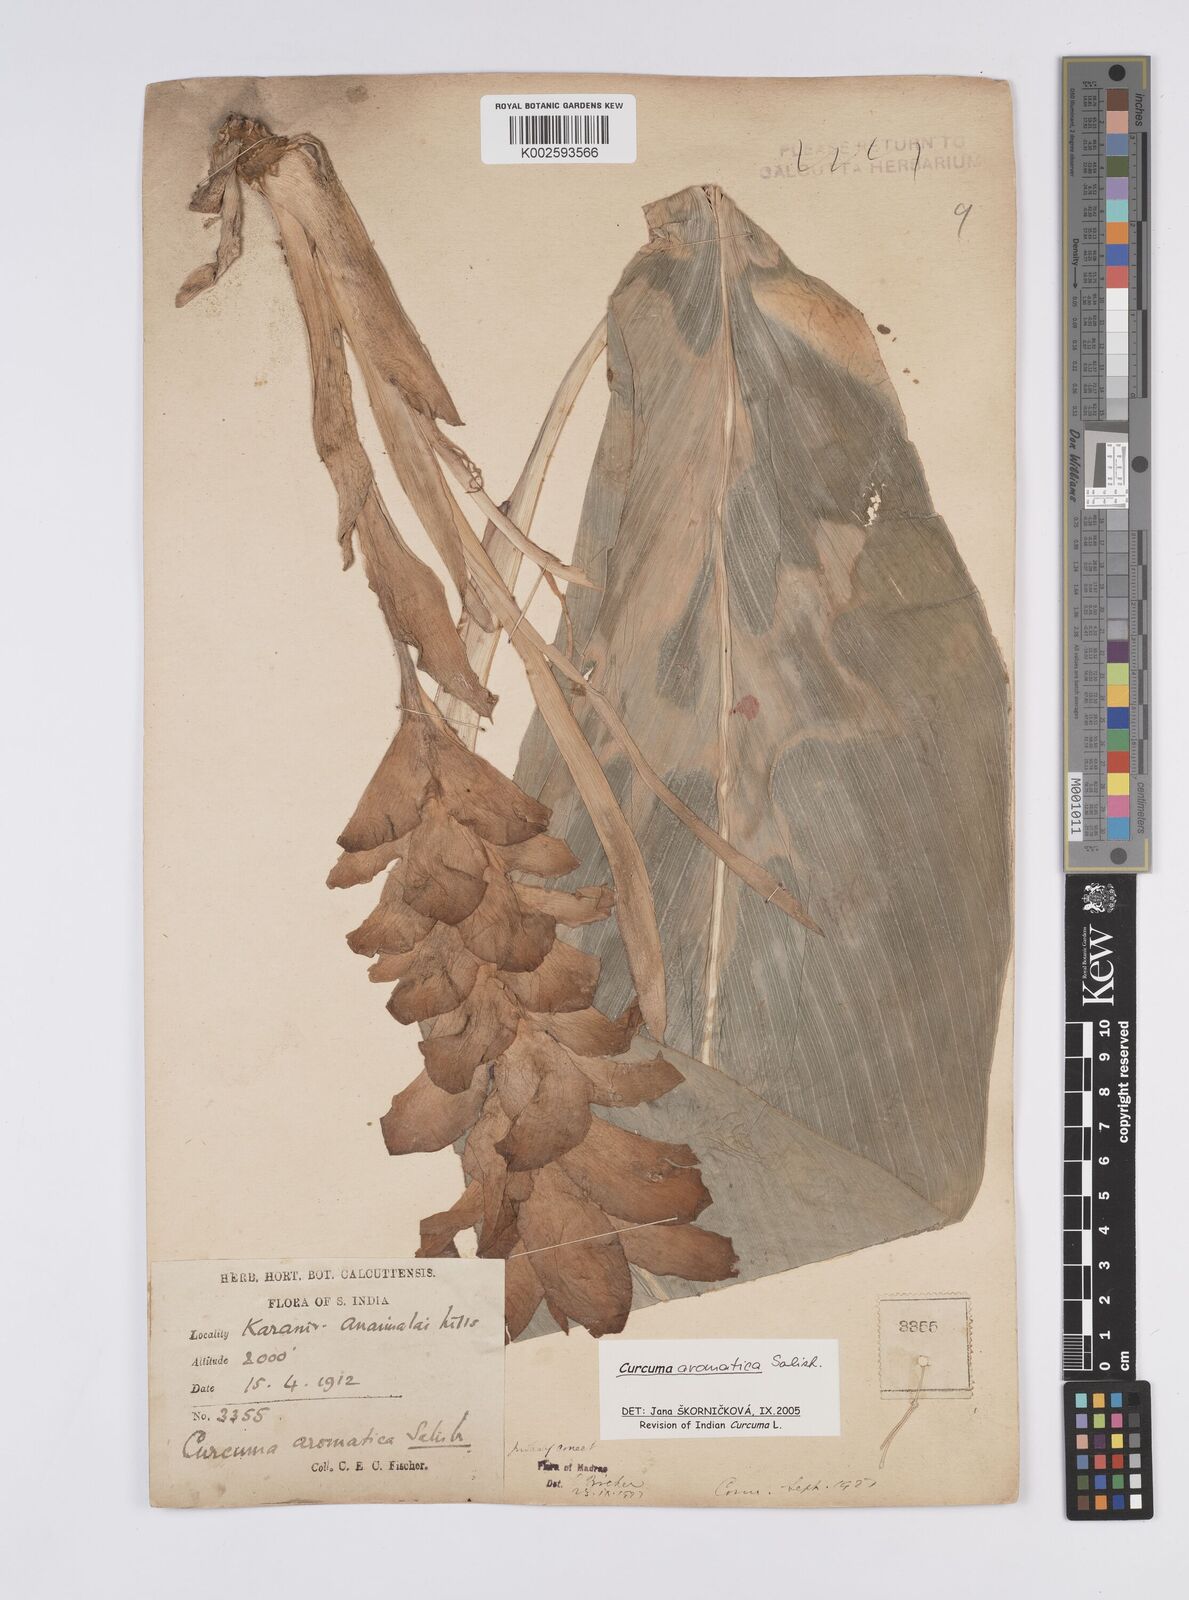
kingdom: Plantae
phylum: Tracheophyta
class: Liliopsida
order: Zingiberales
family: Zingiberaceae
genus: Curcuma
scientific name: Curcuma aromatica
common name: Wild turmeric
